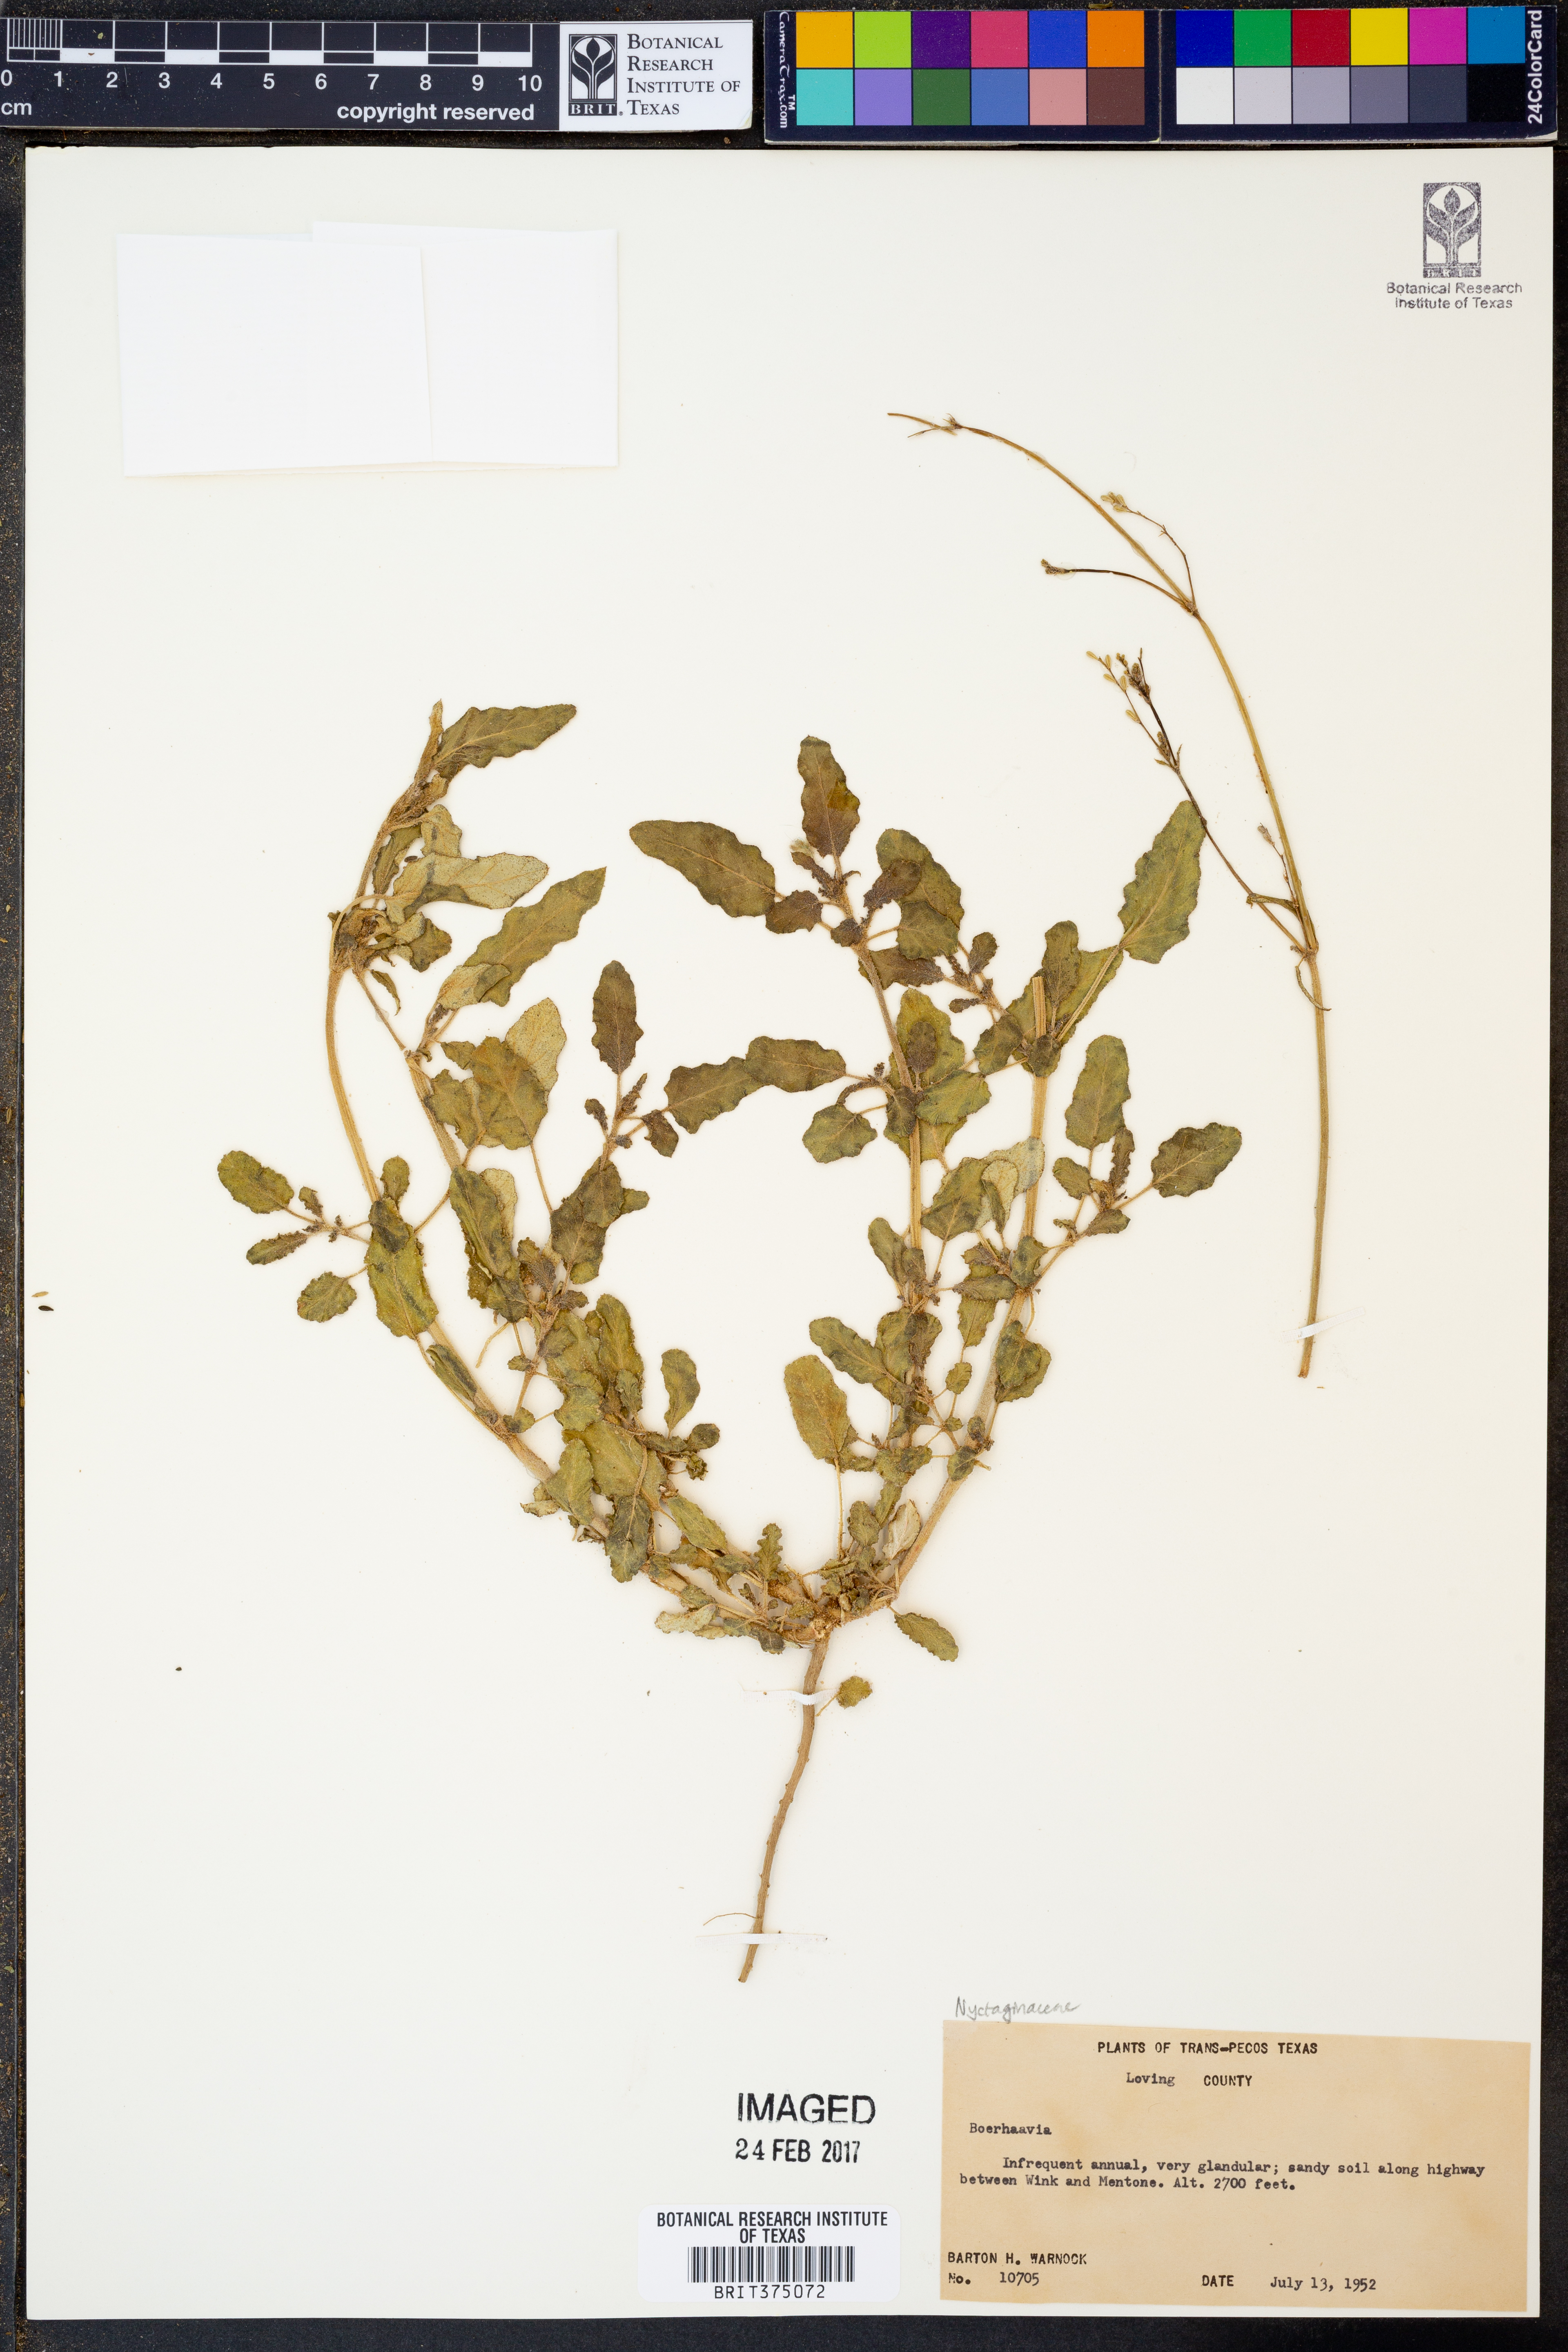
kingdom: Plantae
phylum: Tracheophyta
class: Magnoliopsida
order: Caryophyllales
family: Nyctaginaceae
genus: Boerhavia
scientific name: Boerhavia
